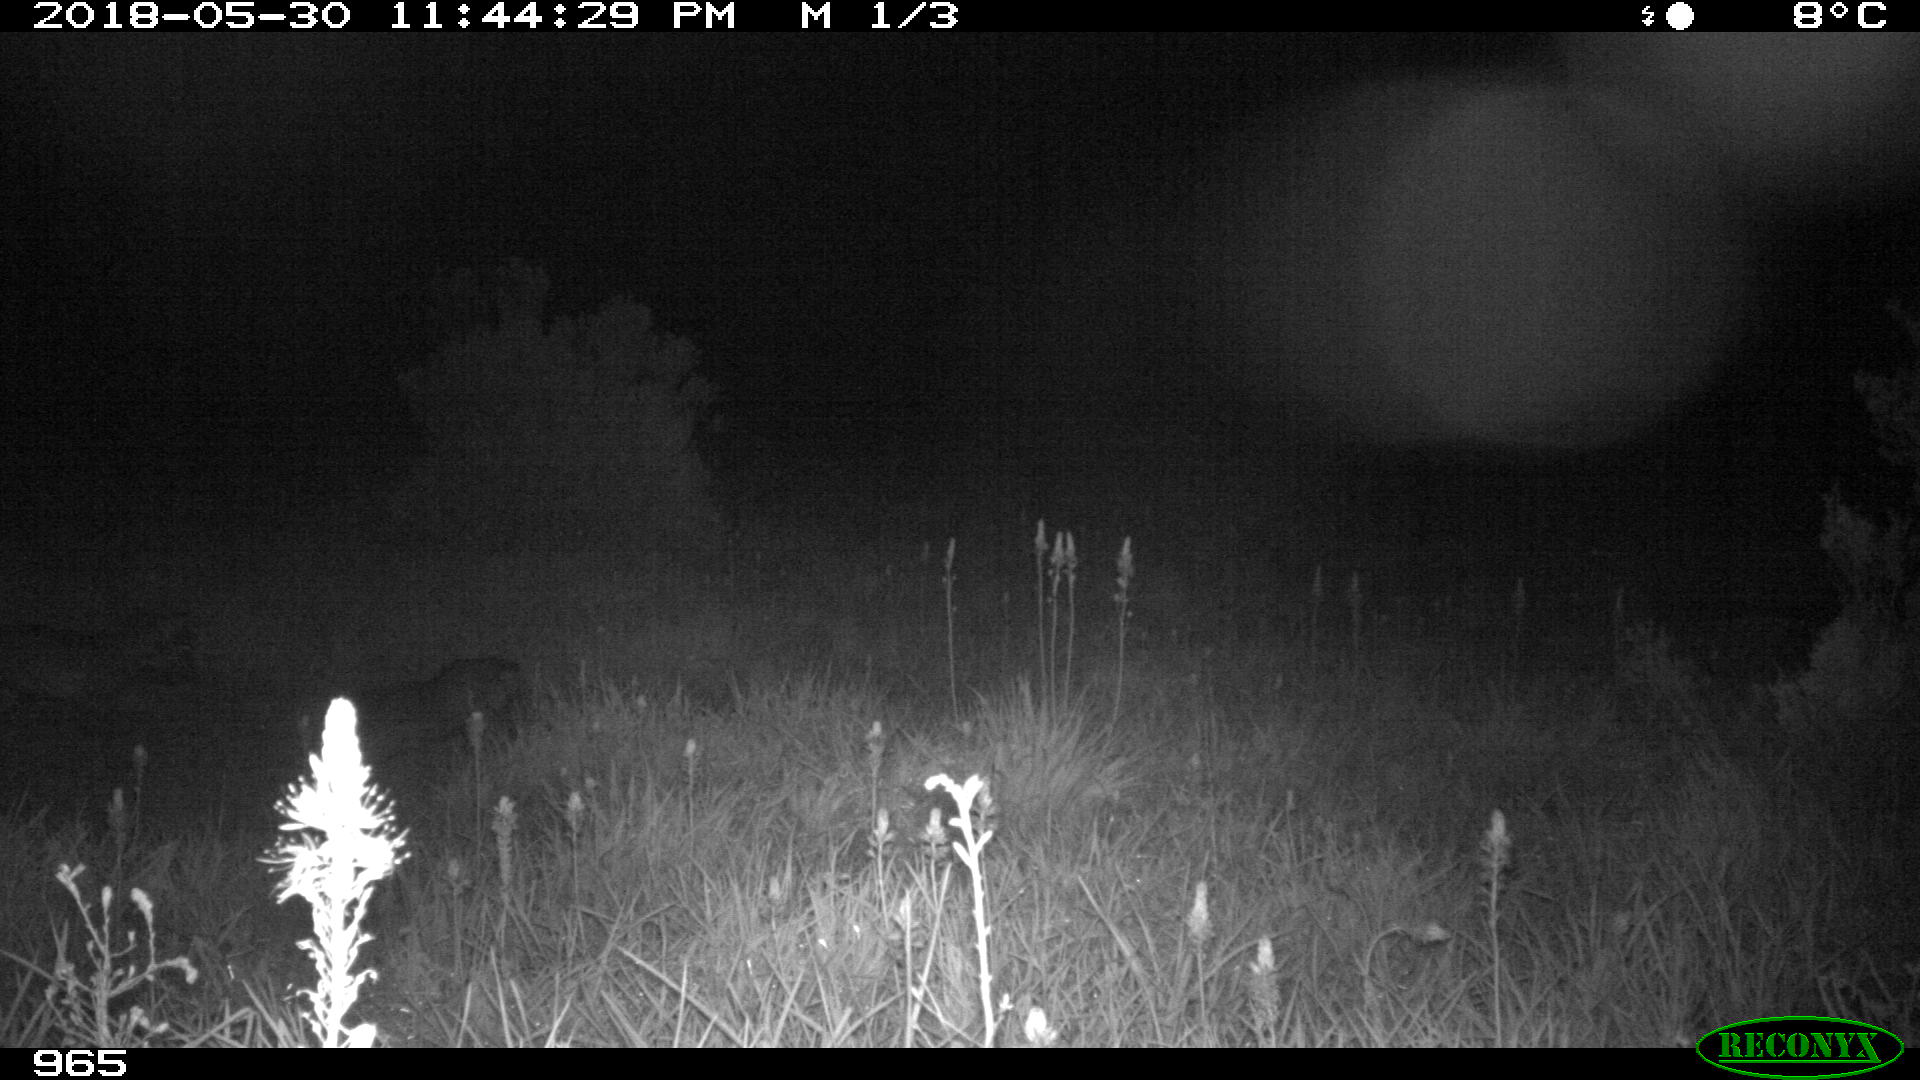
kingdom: Animalia
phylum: Chordata
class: Mammalia
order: Carnivora
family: Canidae
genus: Canis
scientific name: Canis lupus
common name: Gray wolf
